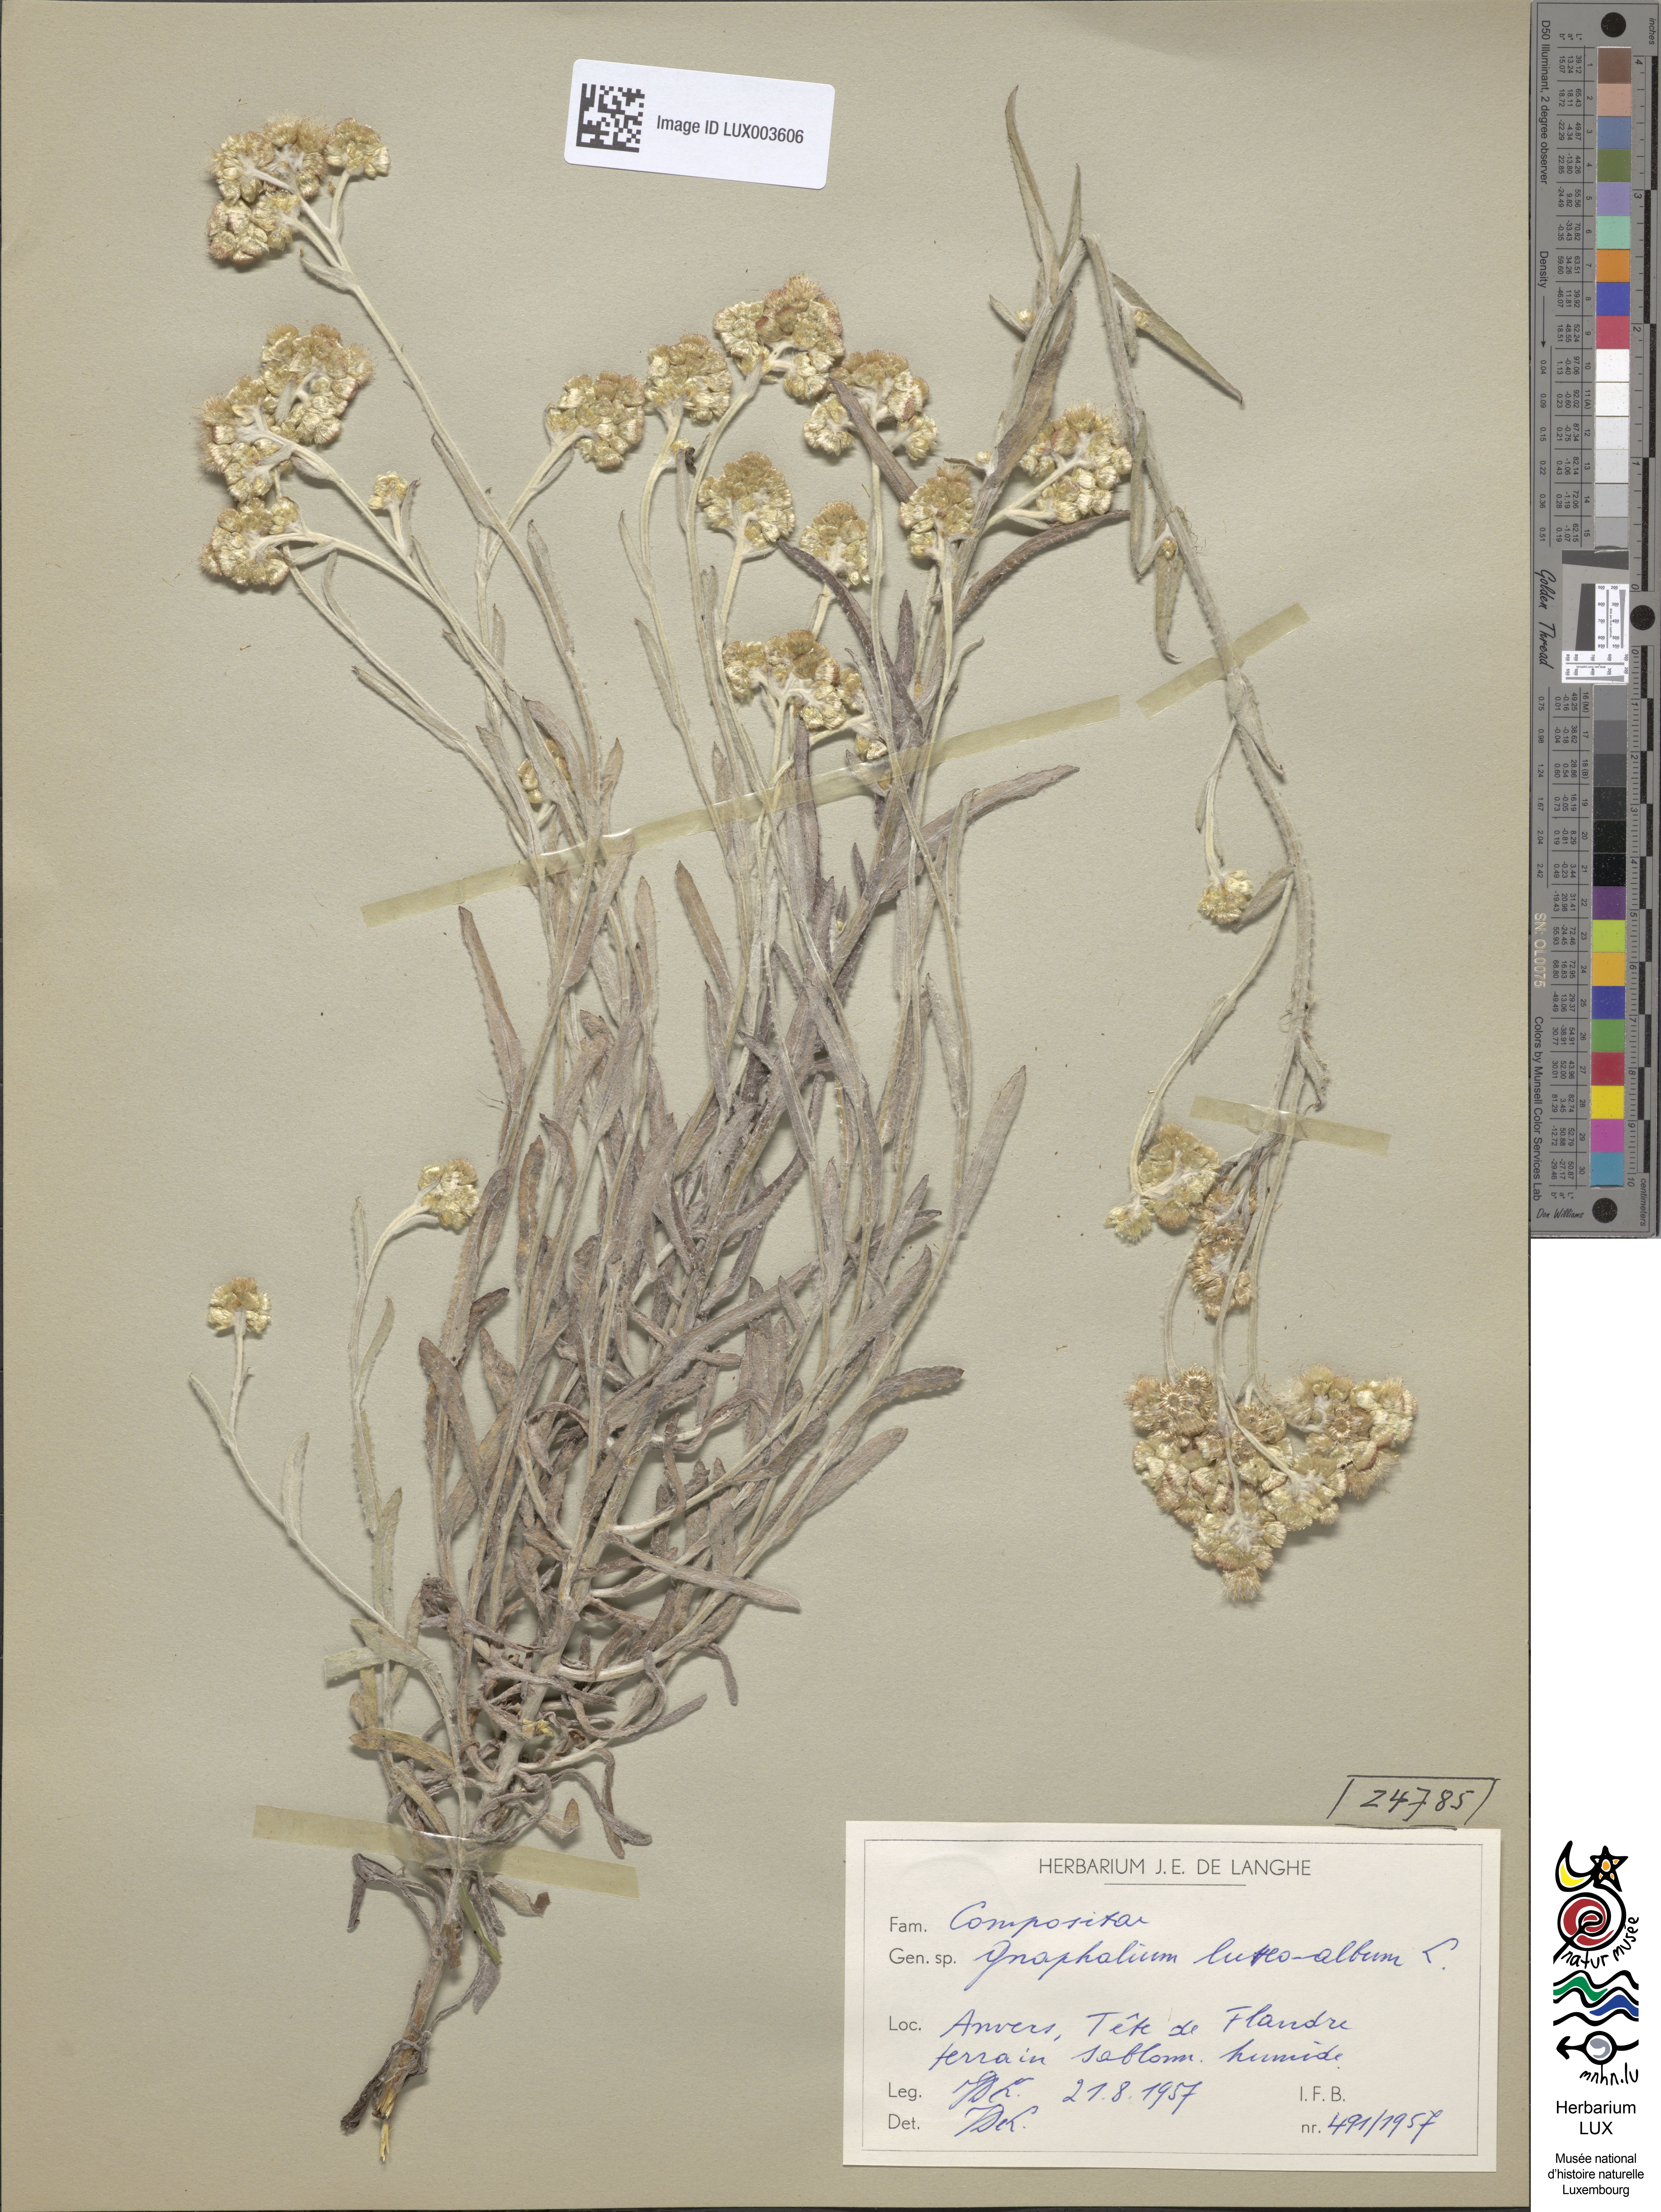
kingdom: Plantae
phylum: Tracheophyta
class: Magnoliopsida
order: Asterales
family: Asteraceae
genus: Helichrysum
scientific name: Helichrysum luteoalbum
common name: Daisy
